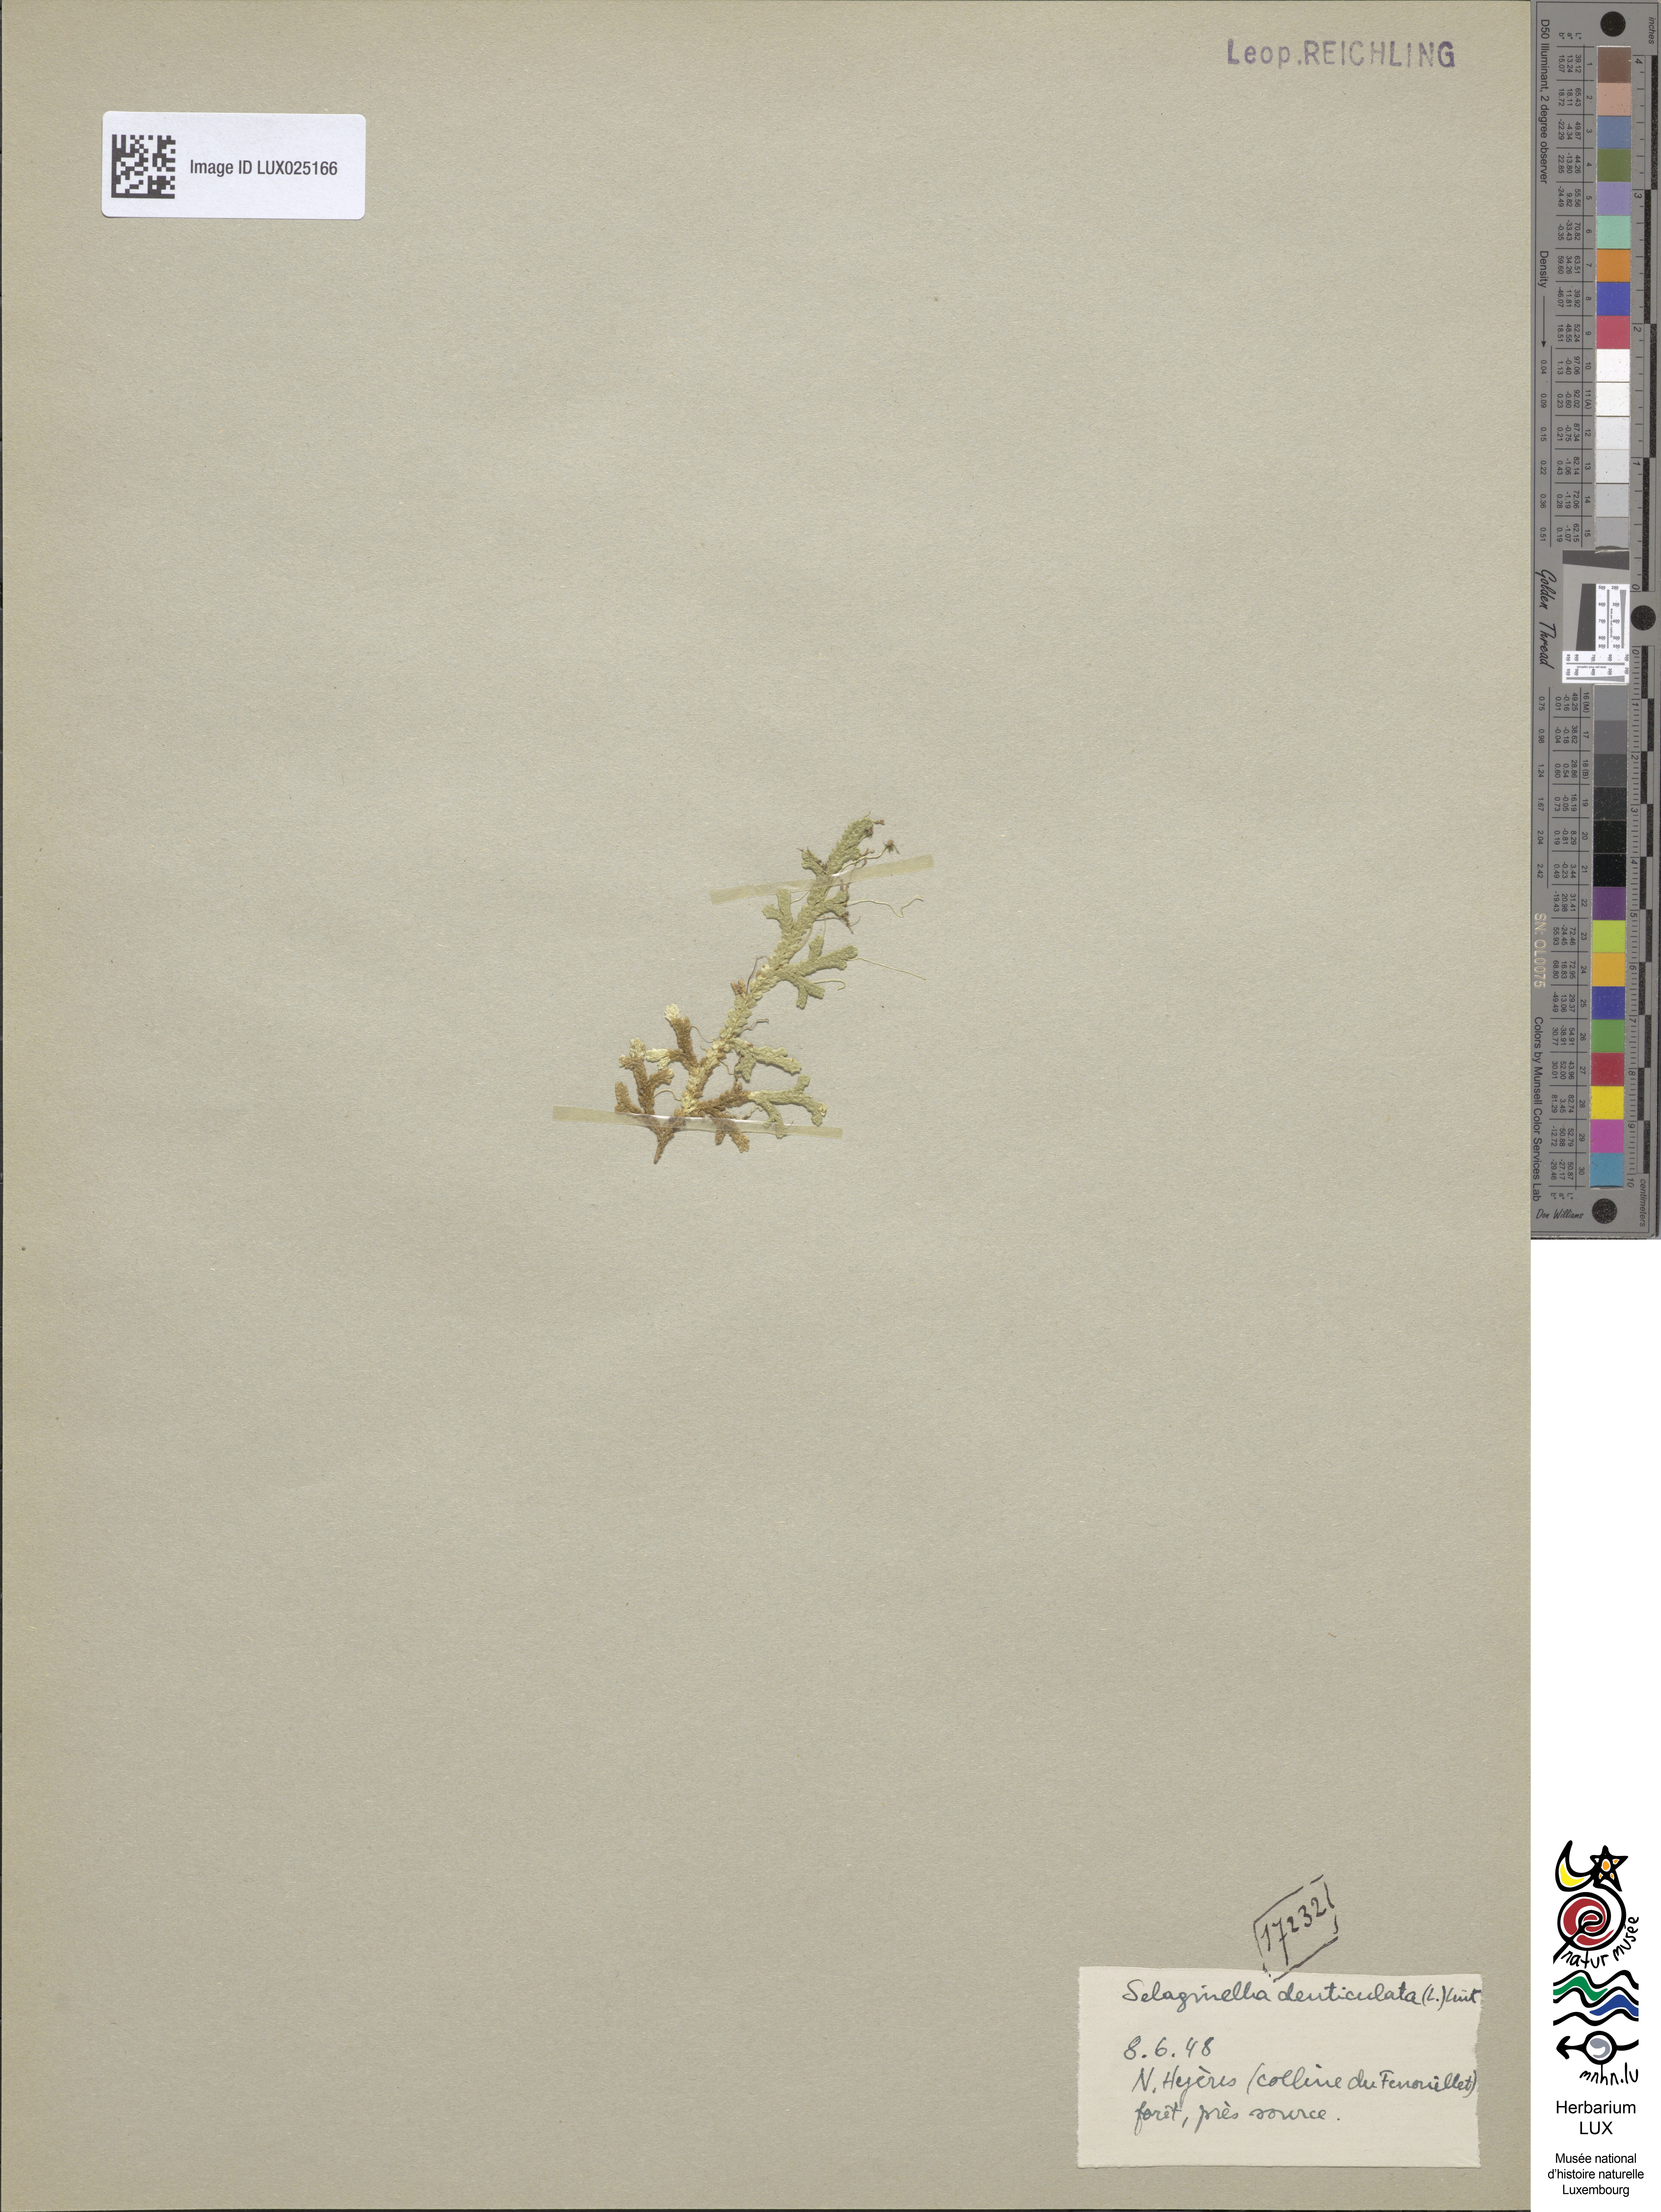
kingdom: Plantae
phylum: Tracheophyta
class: Lycopodiopsida
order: Selaginellales
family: Selaginellaceae
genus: Selaginella
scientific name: Selaginella denticulata
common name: Toothed-leaved clubmoss
